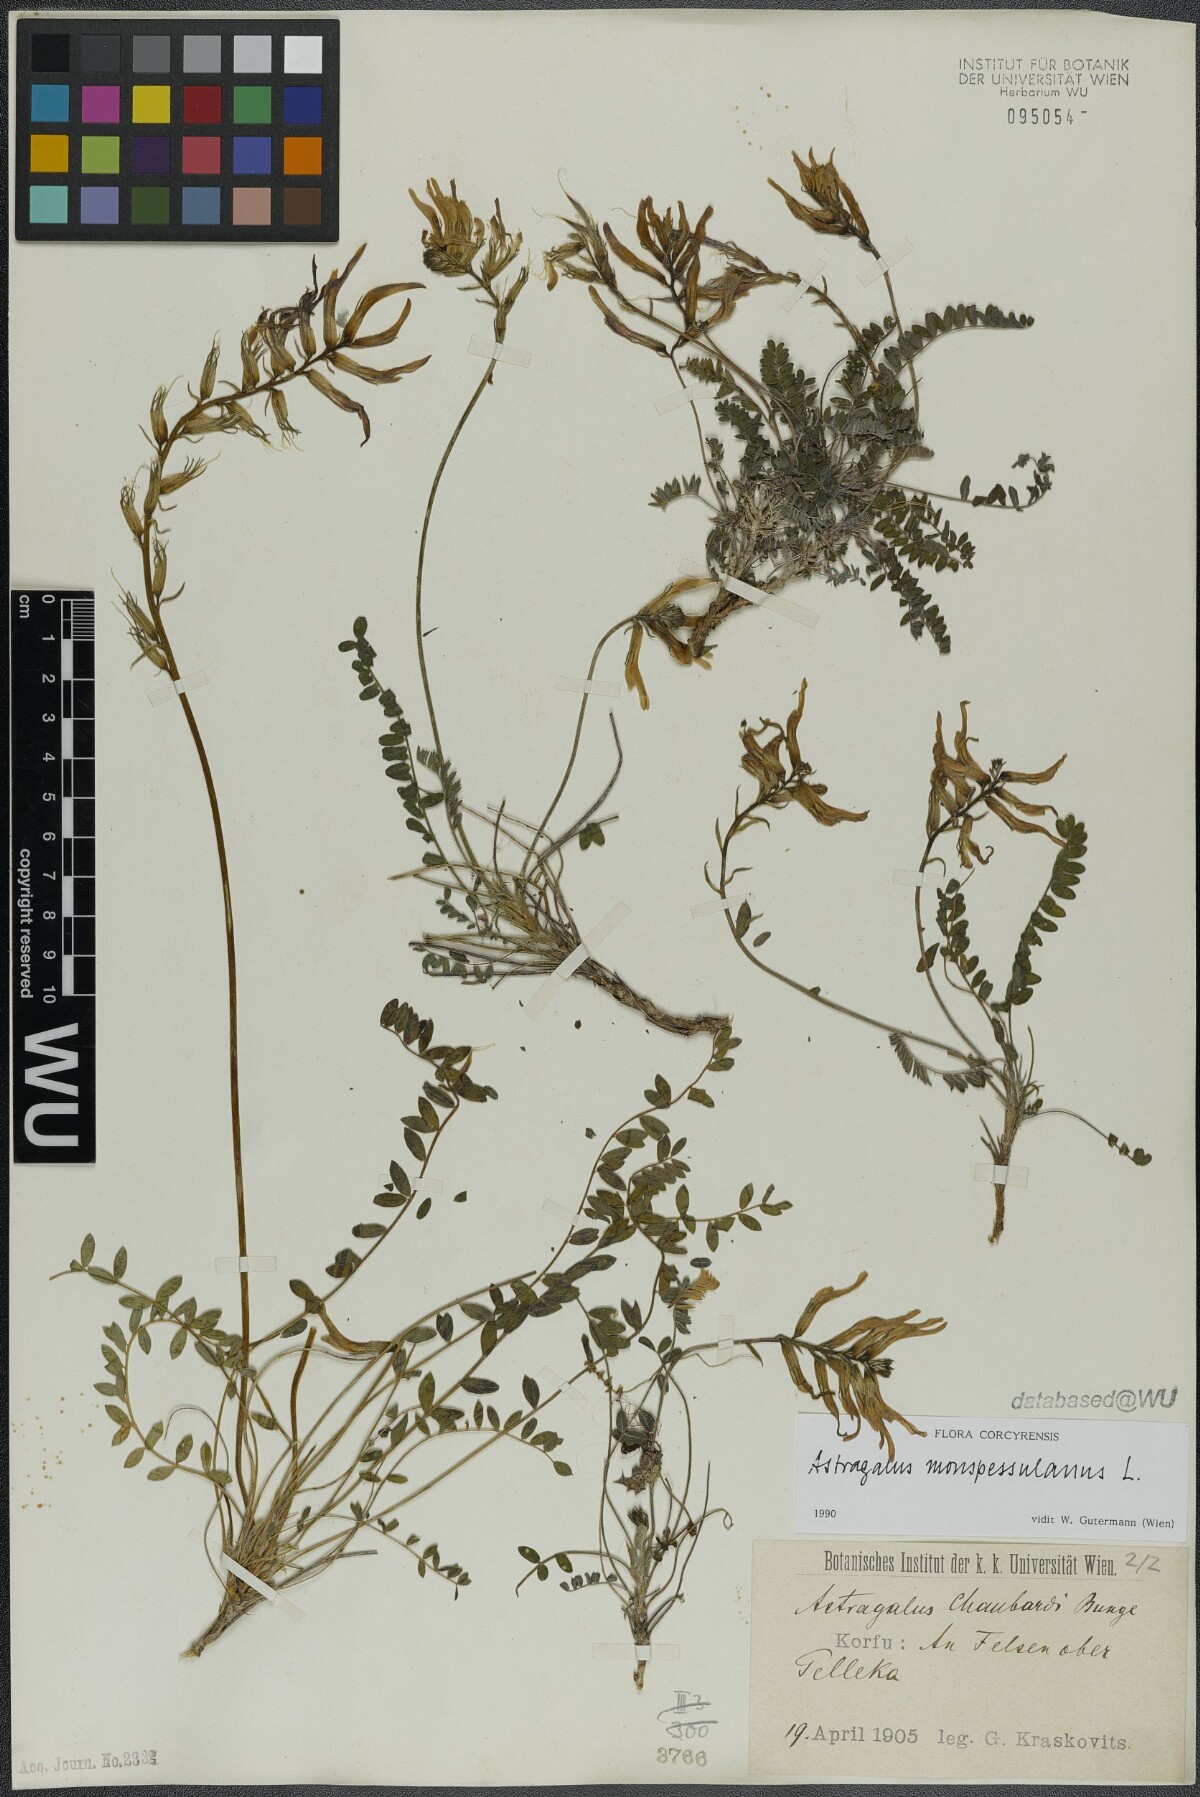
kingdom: Plantae
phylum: Tracheophyta
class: Magnoliopsida
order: Fabales
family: Fabaceae
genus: Astragalus
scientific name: Astragalus monspessulanus
